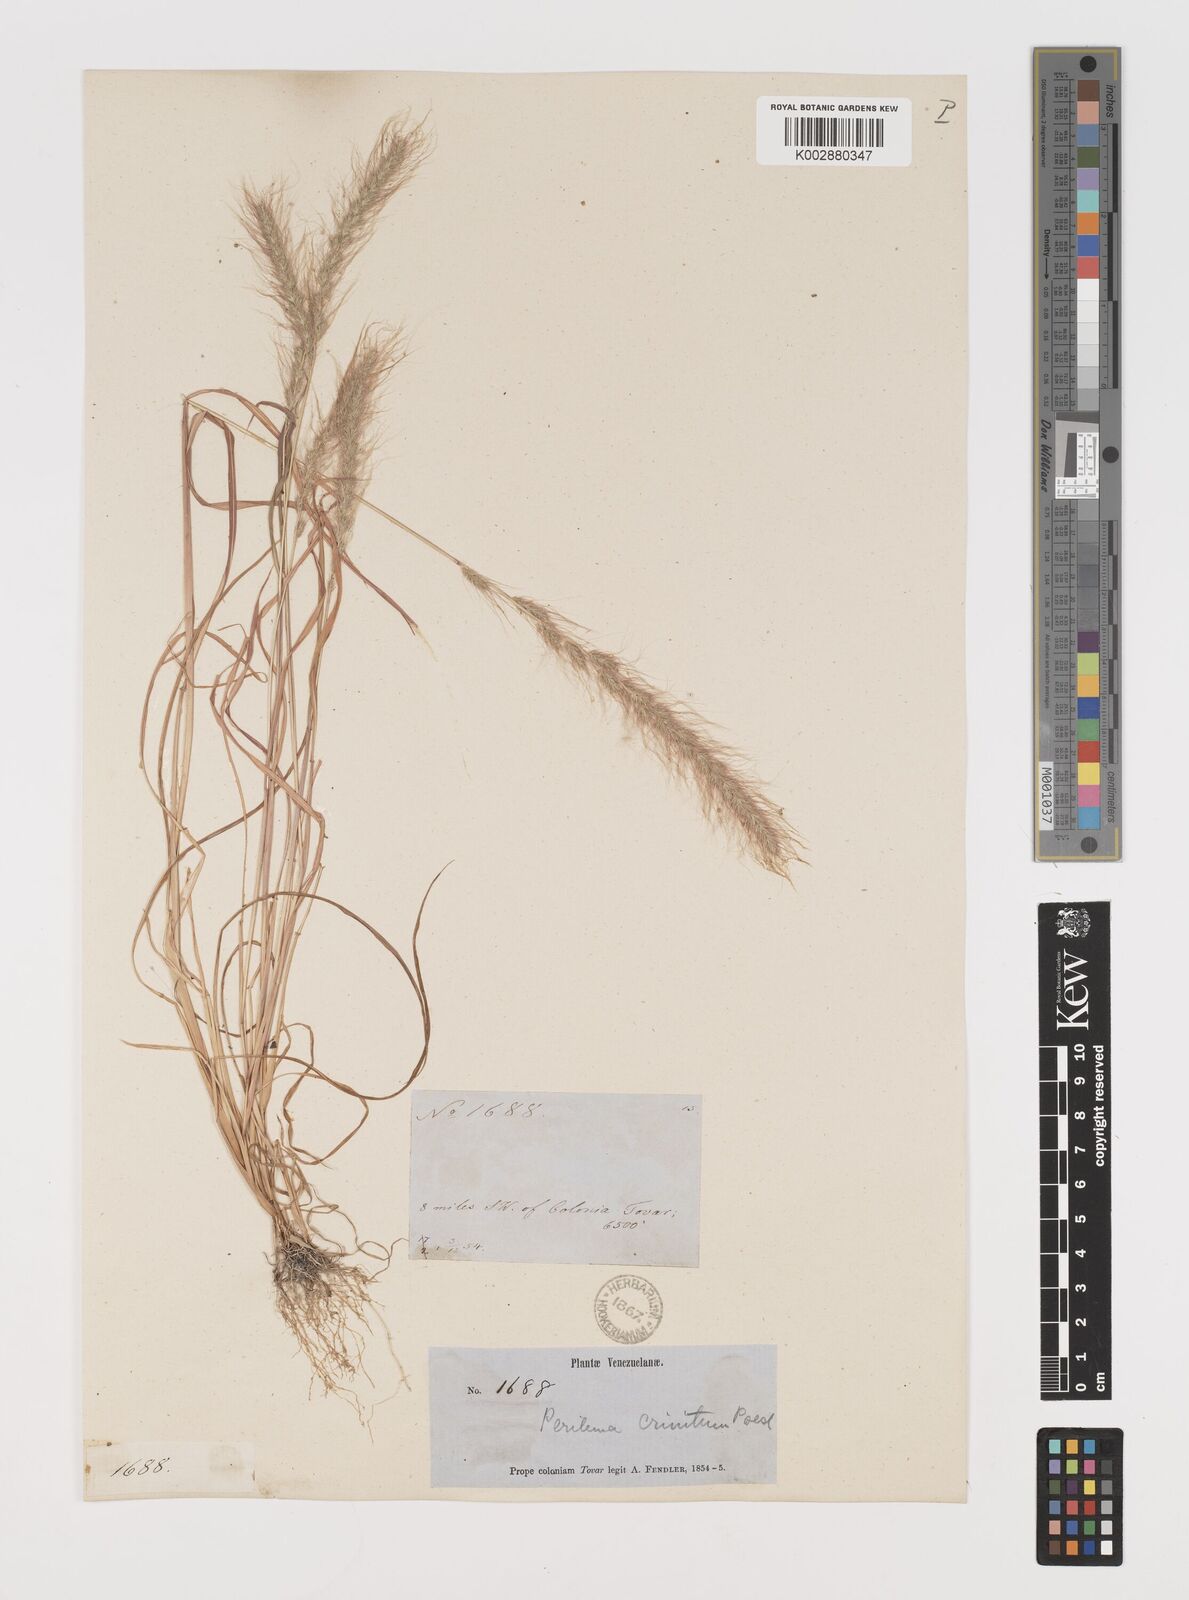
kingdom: Plantae
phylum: Tracheophyta
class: Liliopsida
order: Poales
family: Poaceae
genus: Muhlenbergia
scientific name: Muhlenbergia pereilema
